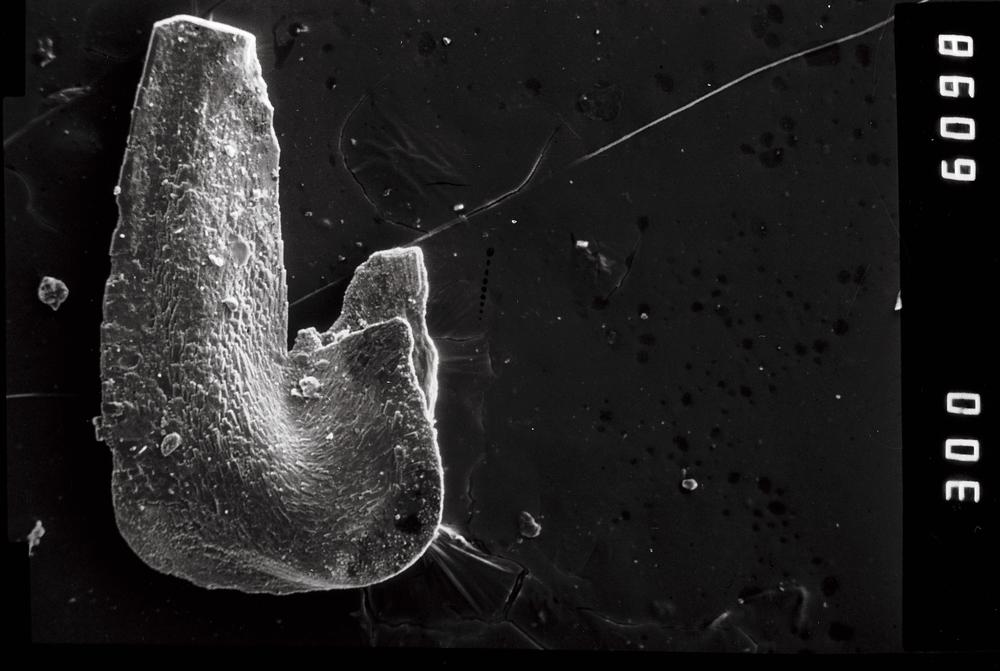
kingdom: Animalia
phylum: Chordata
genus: Paroistodus
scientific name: Paroistodus
